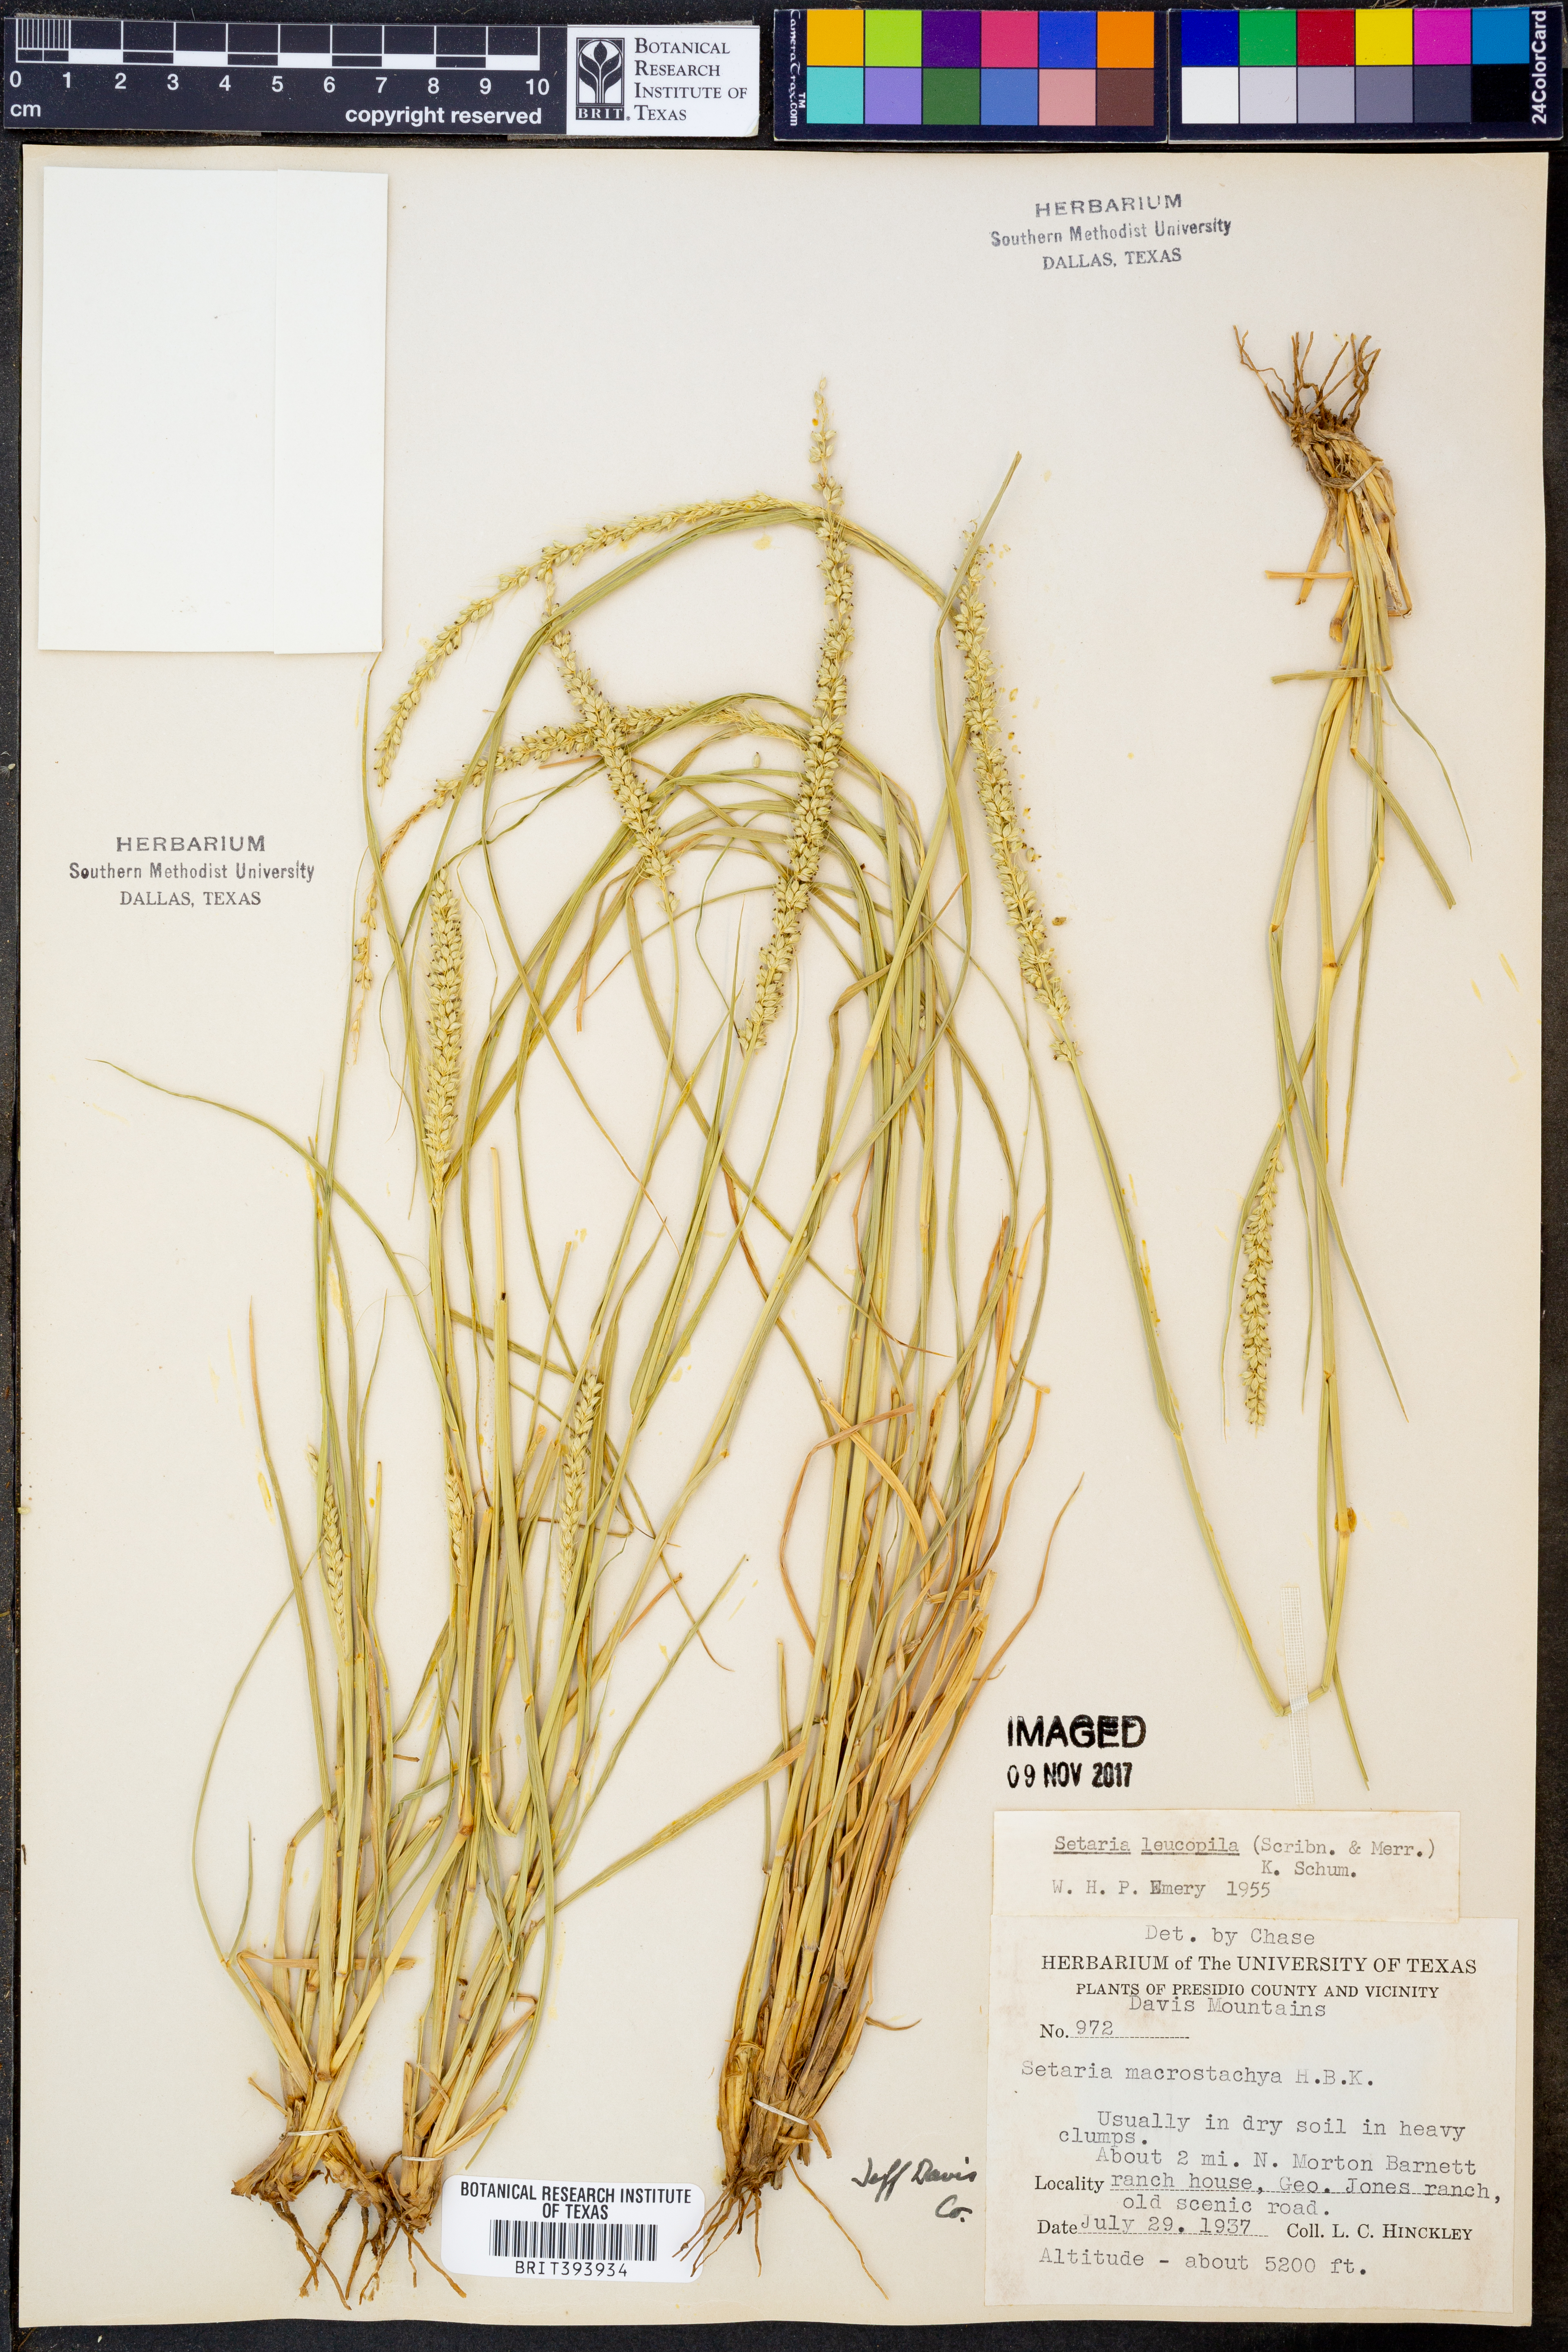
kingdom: Plantae
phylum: Tracheophyta
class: Liliopsida
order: Poales
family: Poaceae
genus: Setaria
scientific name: Setaria leucopila
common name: Plains bristle grass
